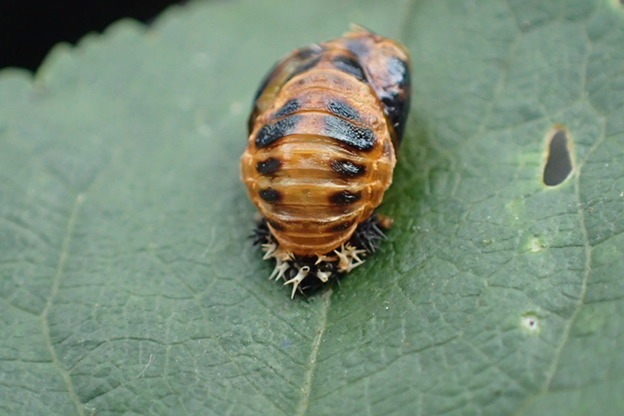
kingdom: Animalia
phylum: Arthropoda
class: Insecta
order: Coleoptera
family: Coccinellidae
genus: Harmonia
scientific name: Harmonia axyridis
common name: Harlekinmariehøne
